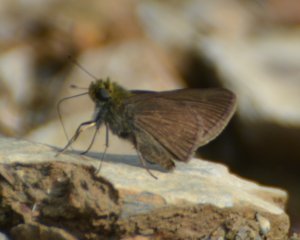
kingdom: Animalia
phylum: Arthropoda
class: Insecta
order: Lepidoptera
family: Hesperiidae
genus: Euphyes
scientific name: Euphyes vestris
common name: Dun Skipper
